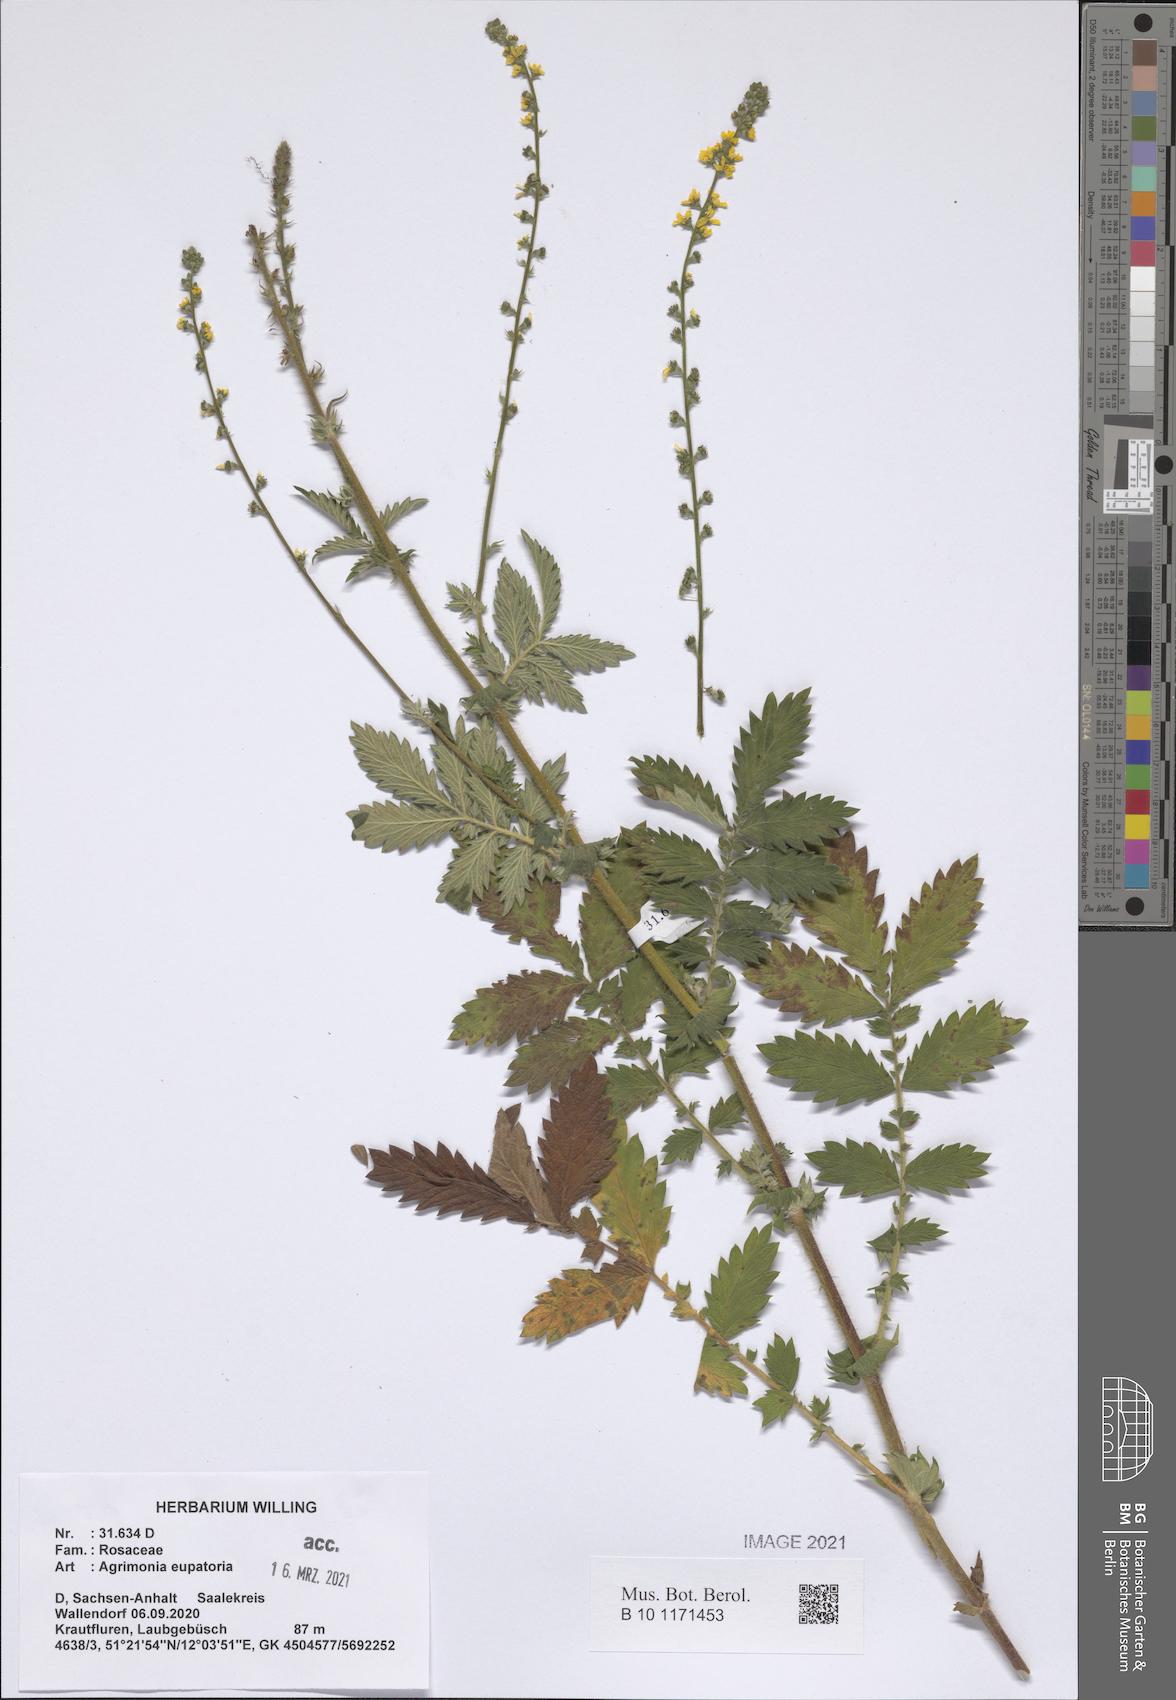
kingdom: Plantae
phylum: Tracheophyta
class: Magnoliopsida
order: Rosales
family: Rosaceae
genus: Agrimonia
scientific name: Agrimonia eupatoria
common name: Agrimony
